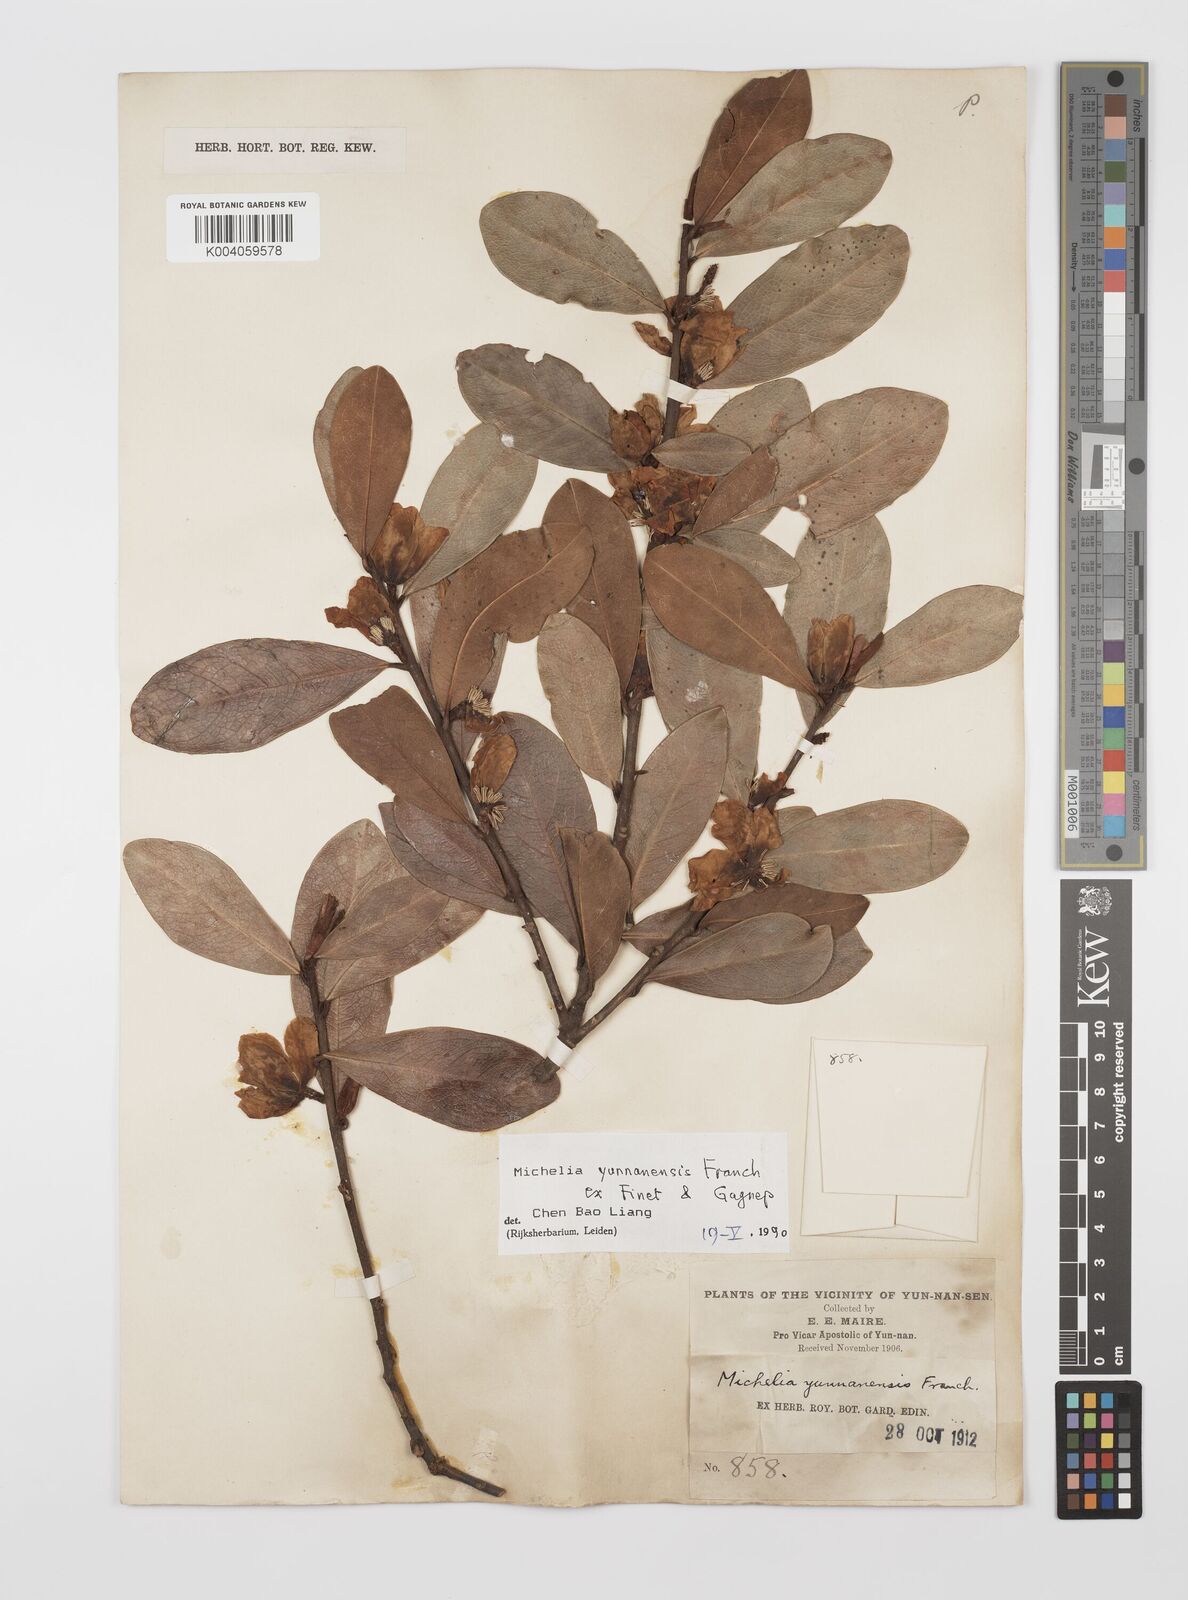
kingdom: Plantae
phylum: Tracheophyta
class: Magnoliopsida
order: Magnoliales
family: Magnoliaceae
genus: Magnolia
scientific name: Magnolia laevifolia
